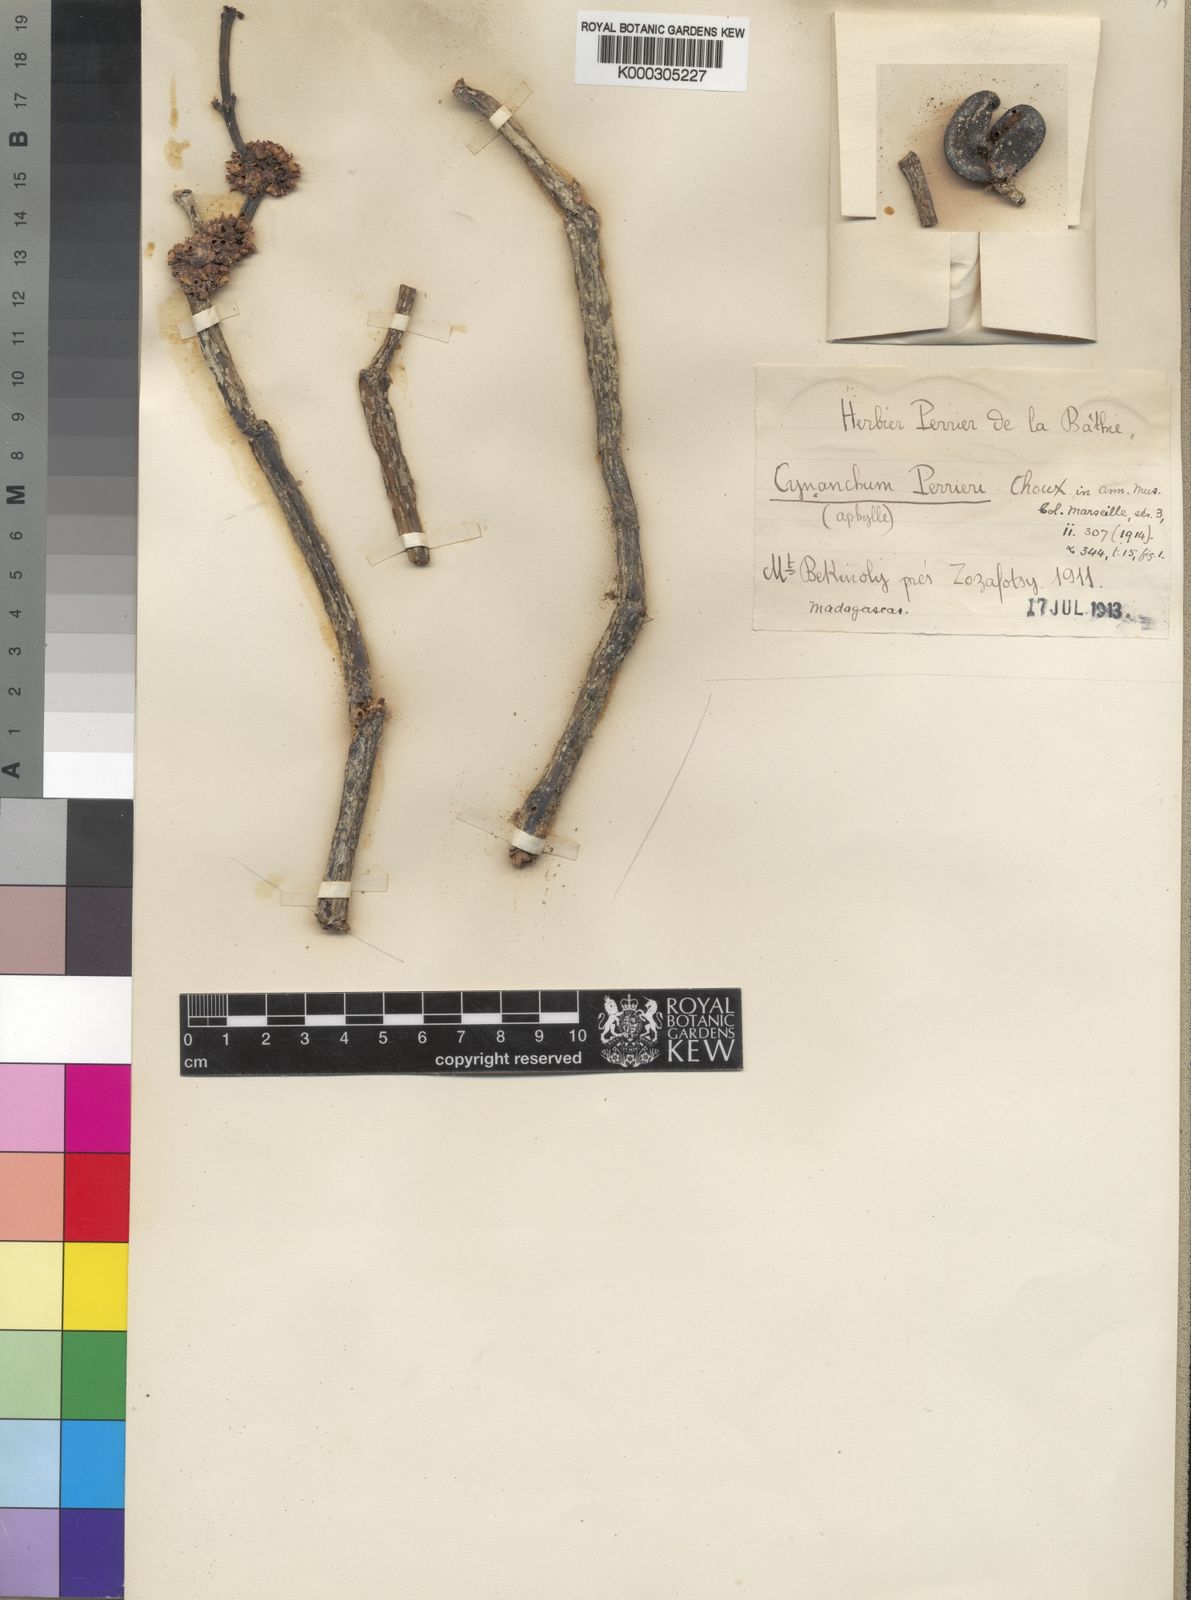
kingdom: Plantae
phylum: Tracheophyta
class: Magnoliopsida
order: Gentianales
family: Apocynaceae
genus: Cynanchum
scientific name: Cynanchum perrieri
